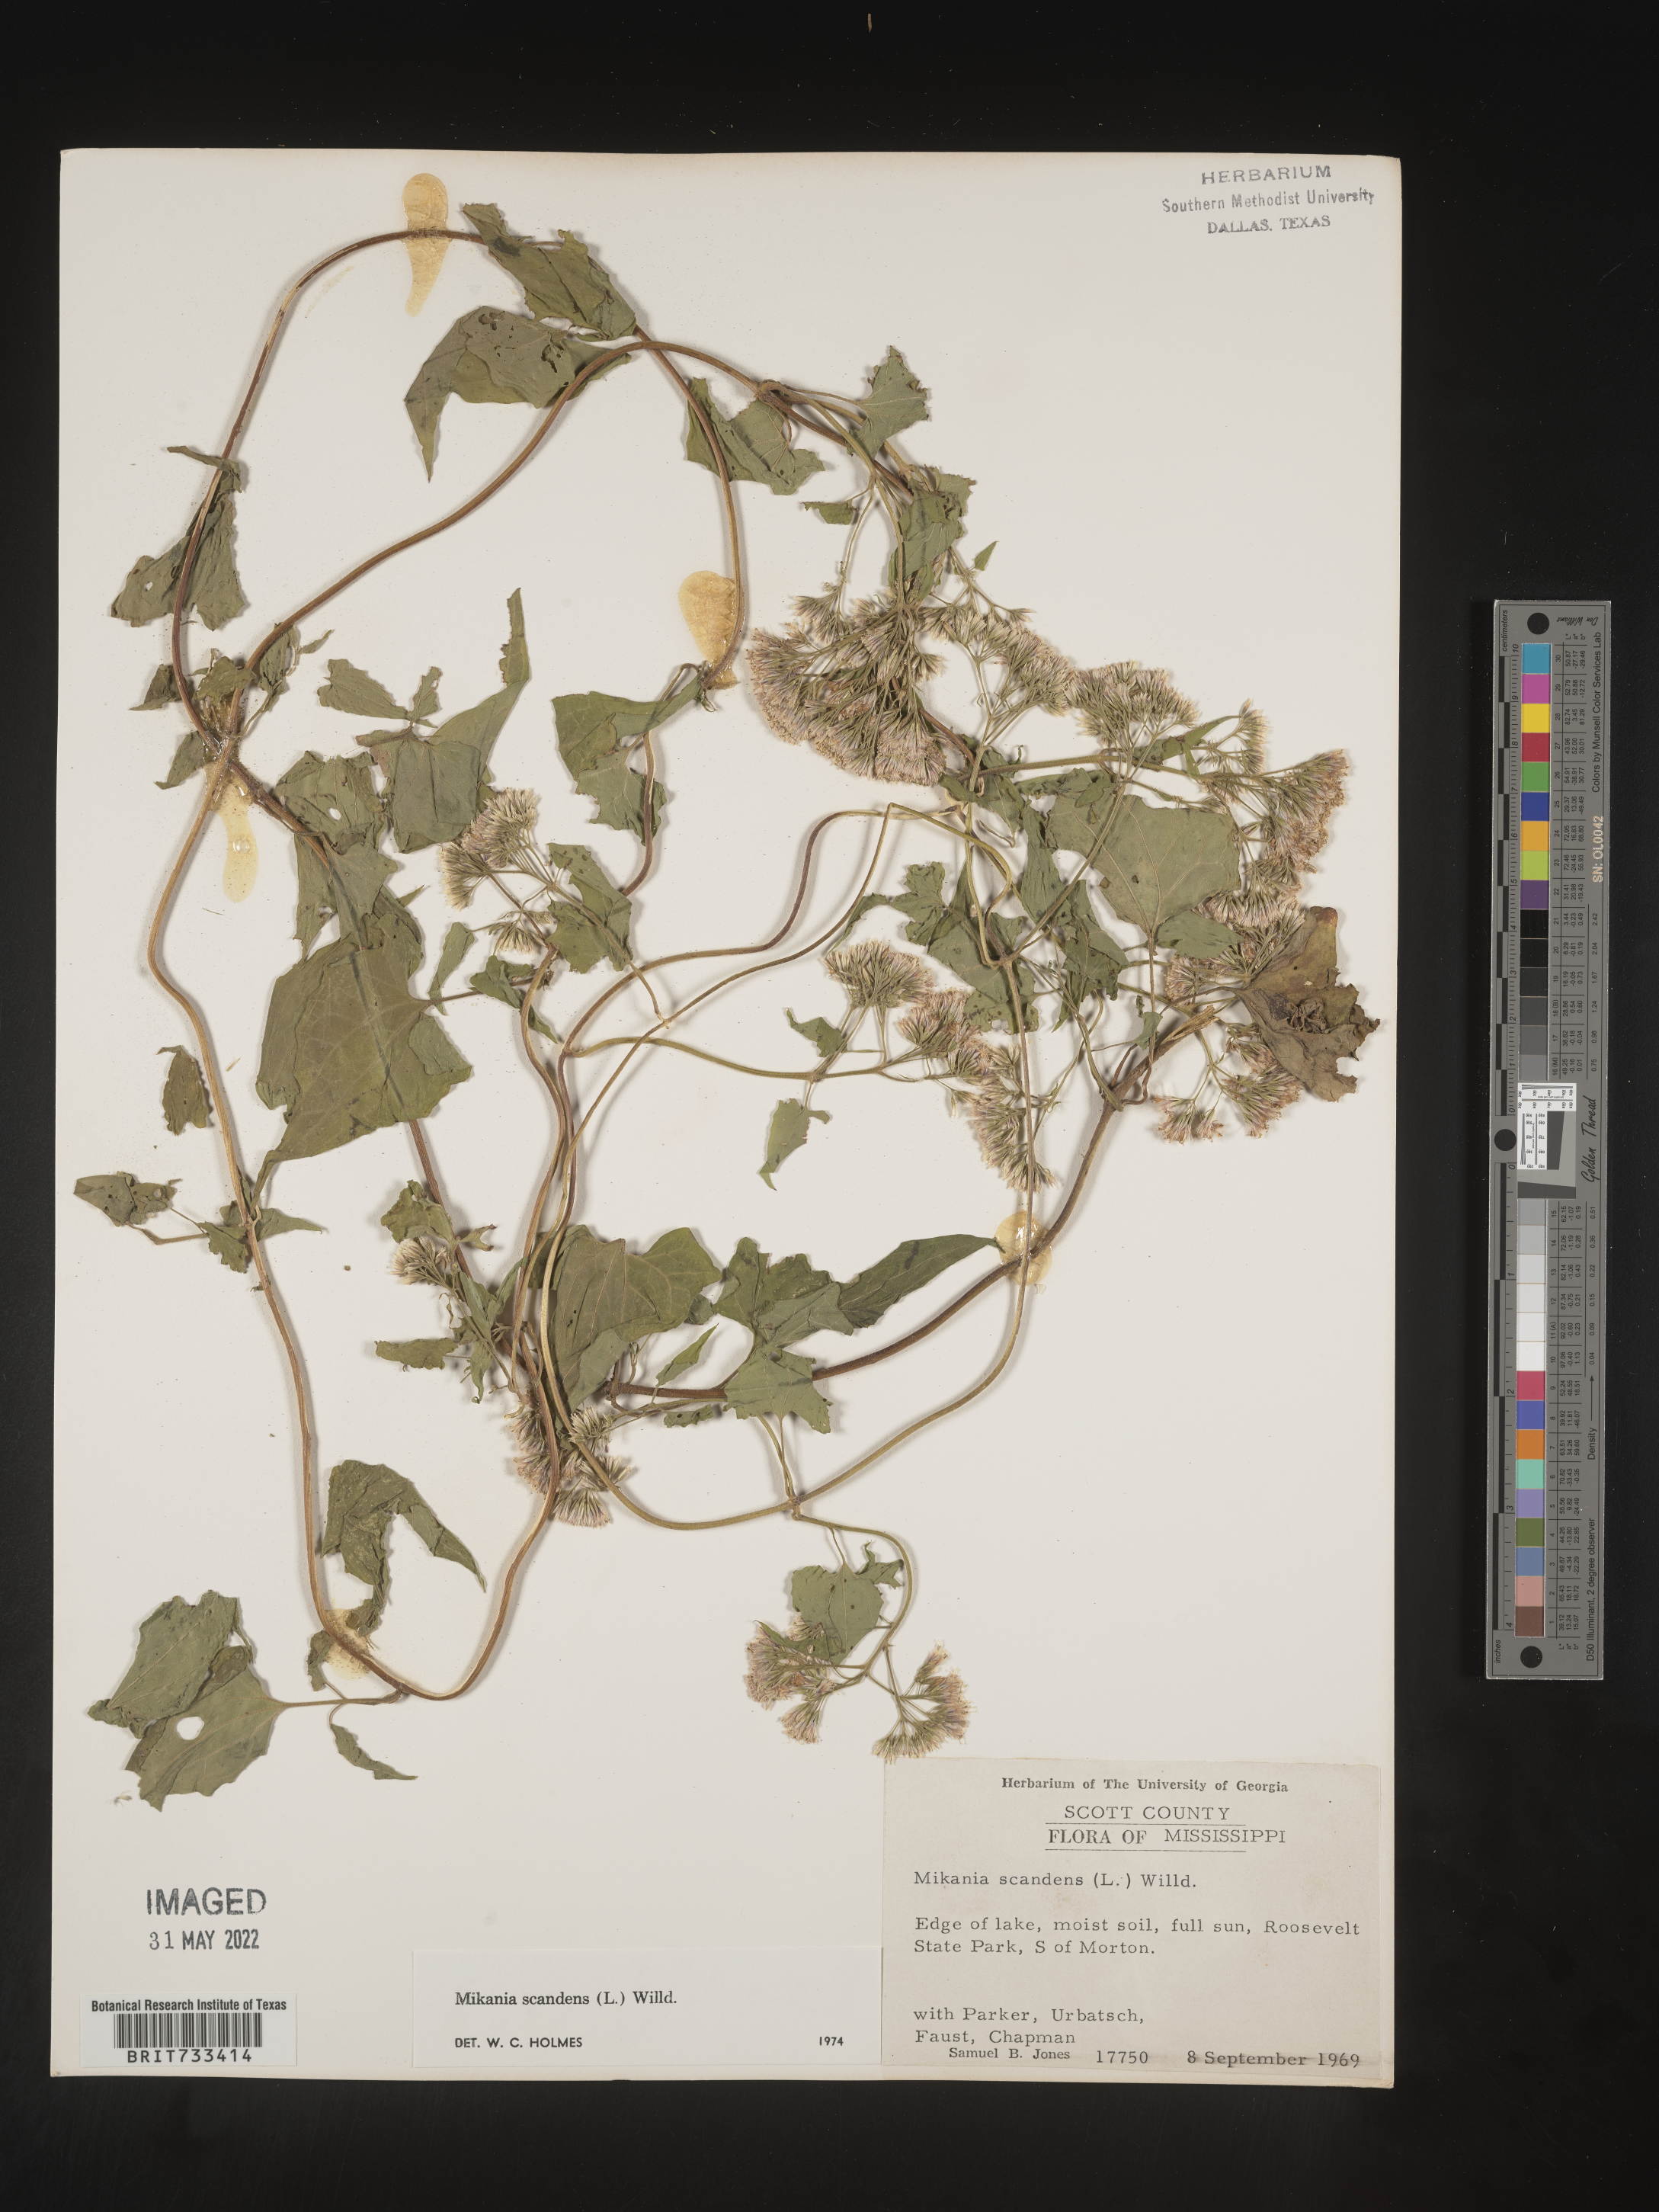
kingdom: Plantae
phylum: Tracheophyta
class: Magnoliopsida
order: Asterales
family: Asteraceae
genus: Mikania
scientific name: Mikania scandens
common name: Climbing hempvine
